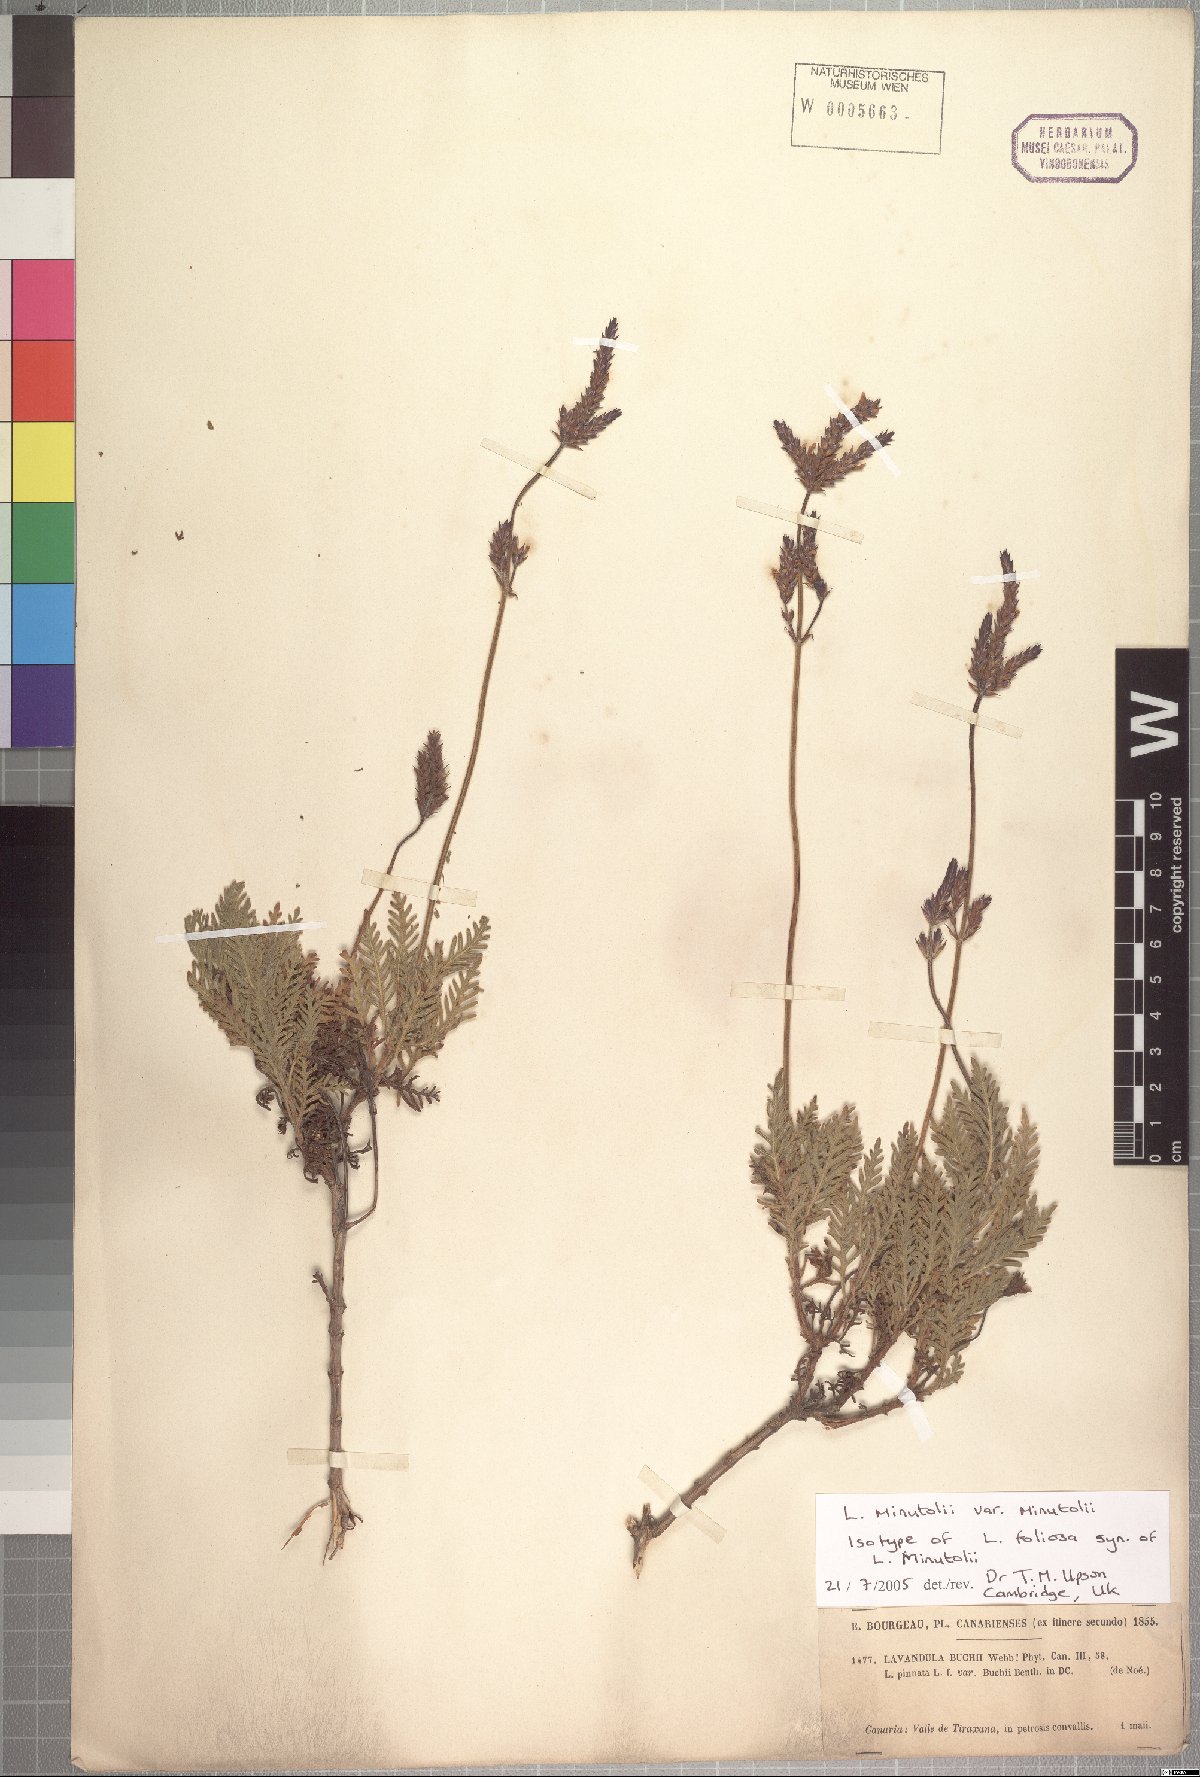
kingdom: Plantae
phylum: Tracheophyta
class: Magnoliopsida
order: Lamiales
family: Lamiaceae
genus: Lavandula
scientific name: Lavandula minutolii
